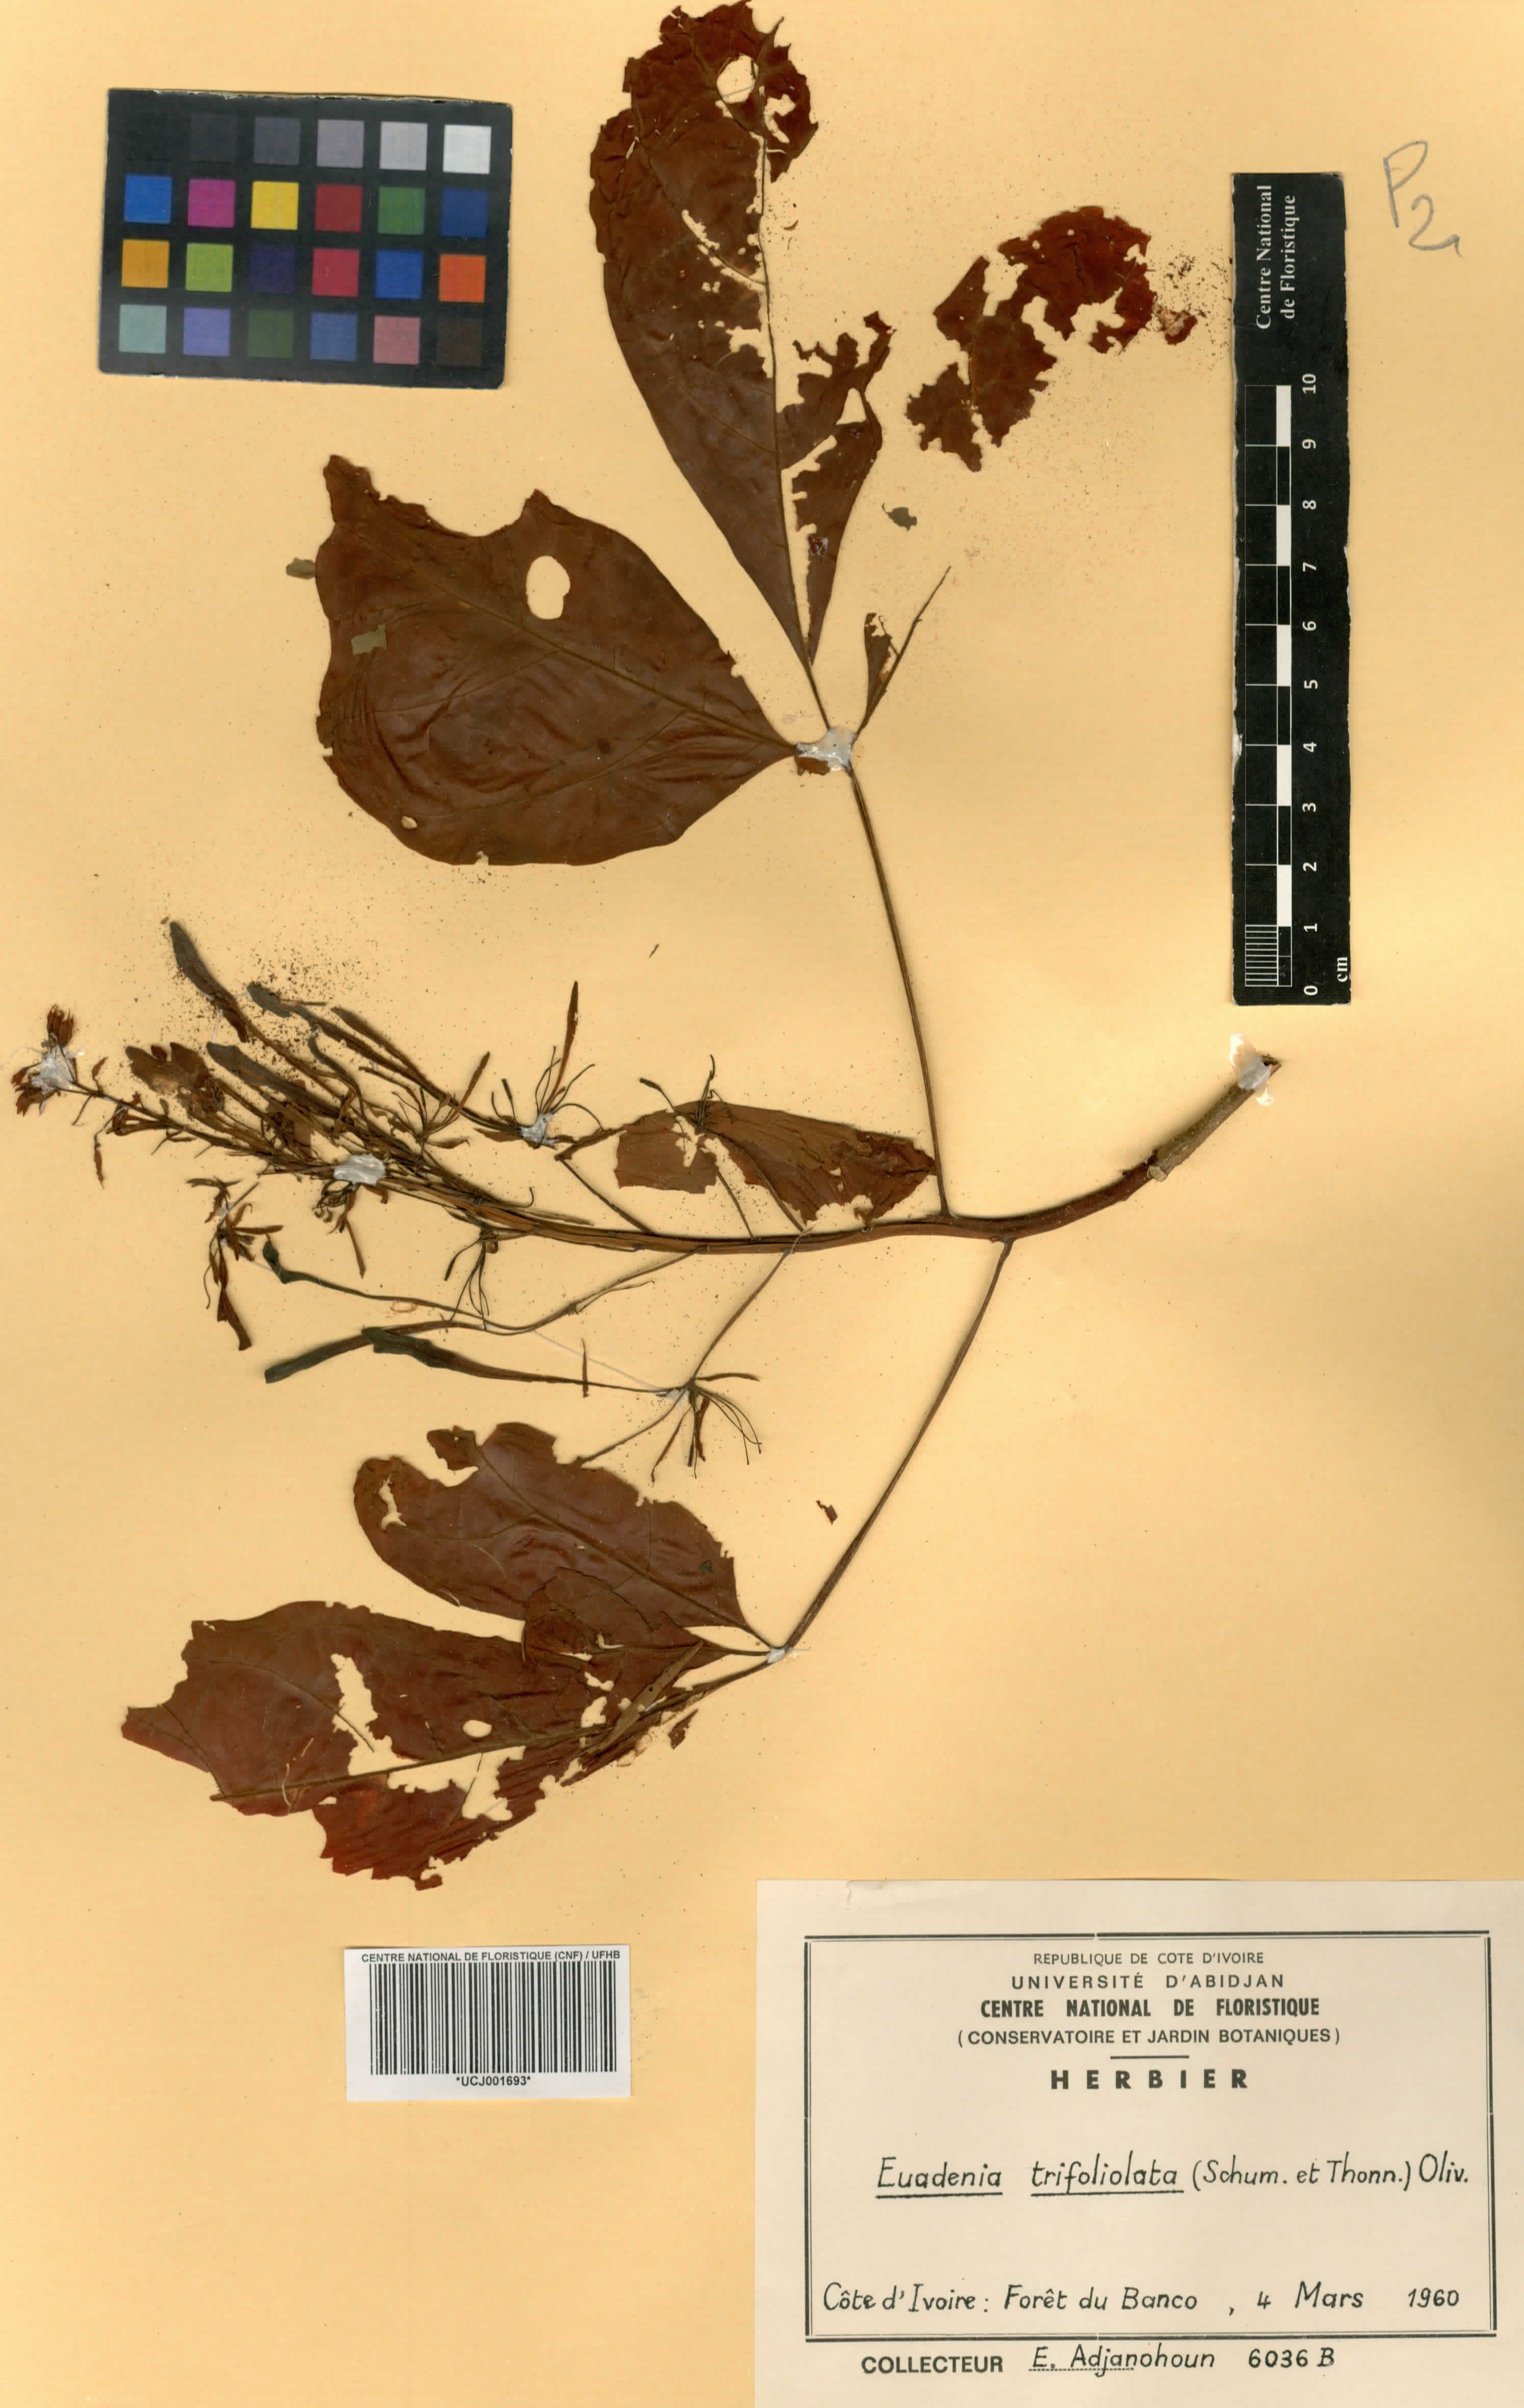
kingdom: Plantae
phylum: Tracheophyta
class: Magnoliopsida
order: Brassicales
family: Capparaceae
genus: Euadenia
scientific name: Euadenia trifoliolata
